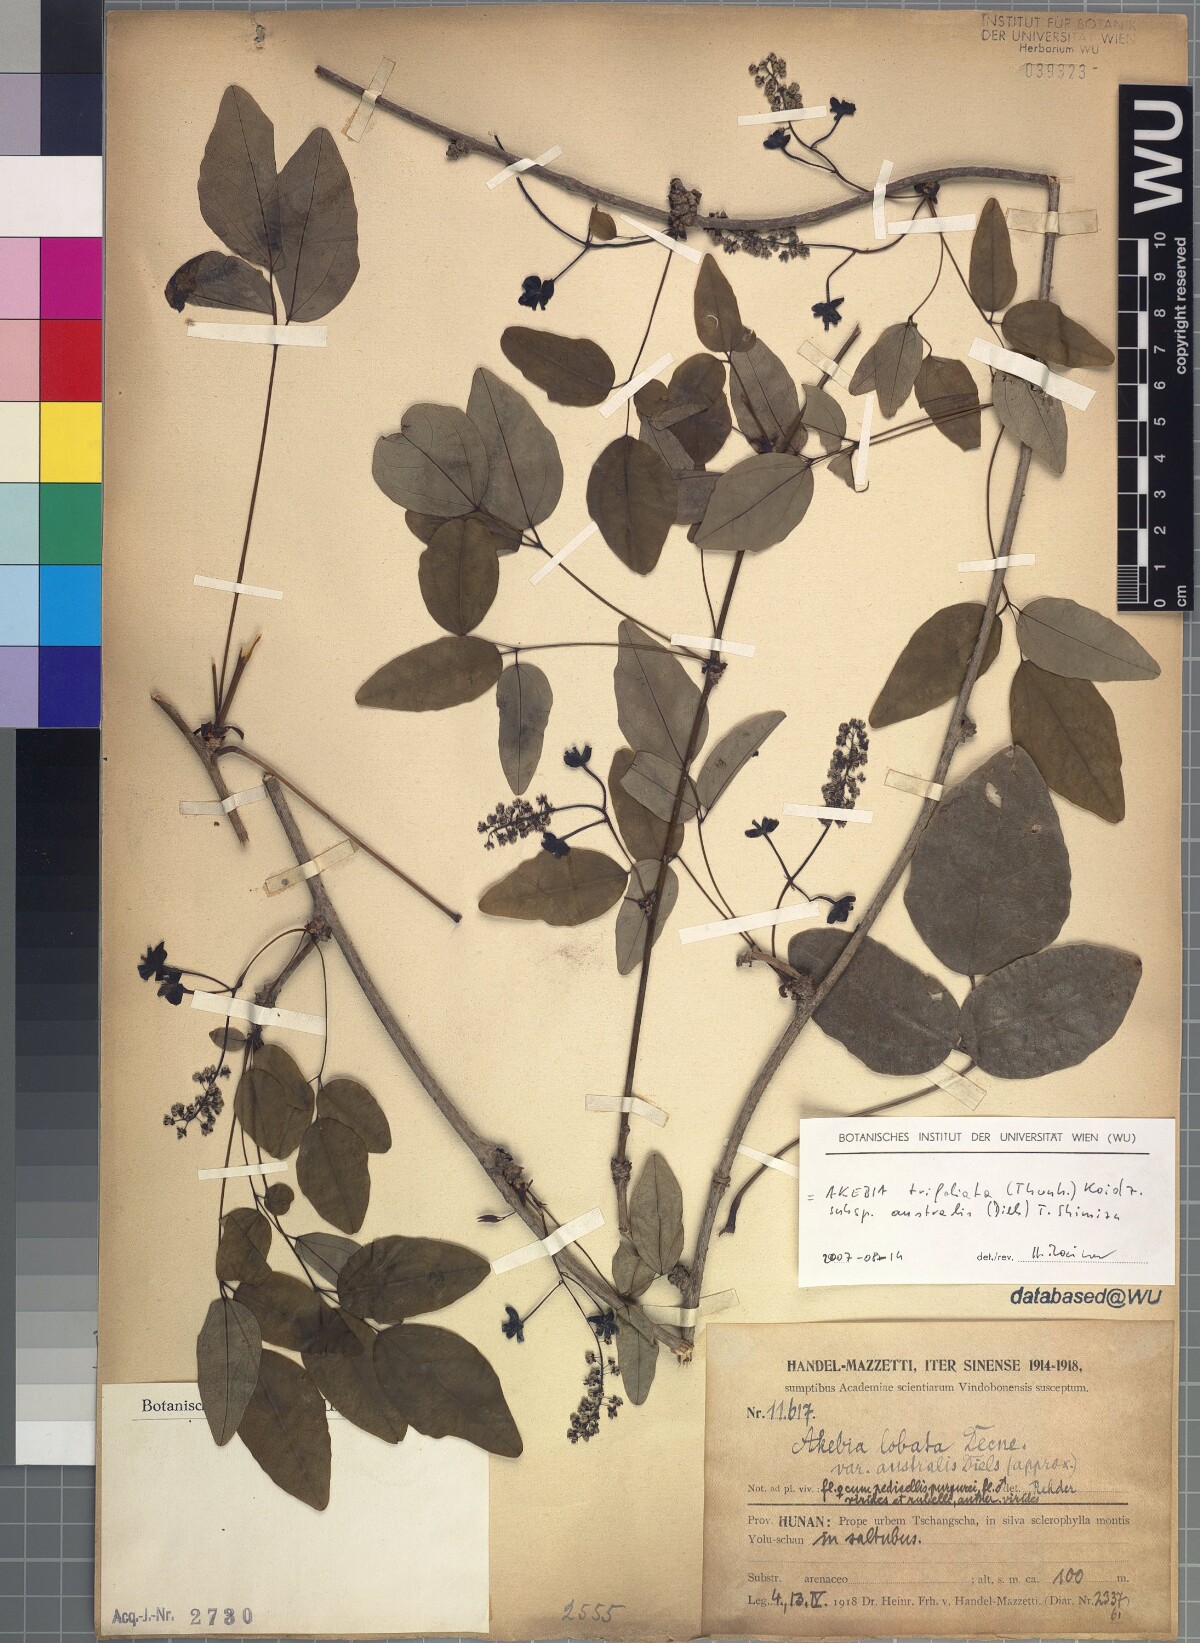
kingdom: Plantae
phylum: Tracheophyta
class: Magnoliopsida
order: Ranunculales
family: Lardizabalaceae
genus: Akebia
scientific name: Akebia trifoliata
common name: Chocolate-vine
